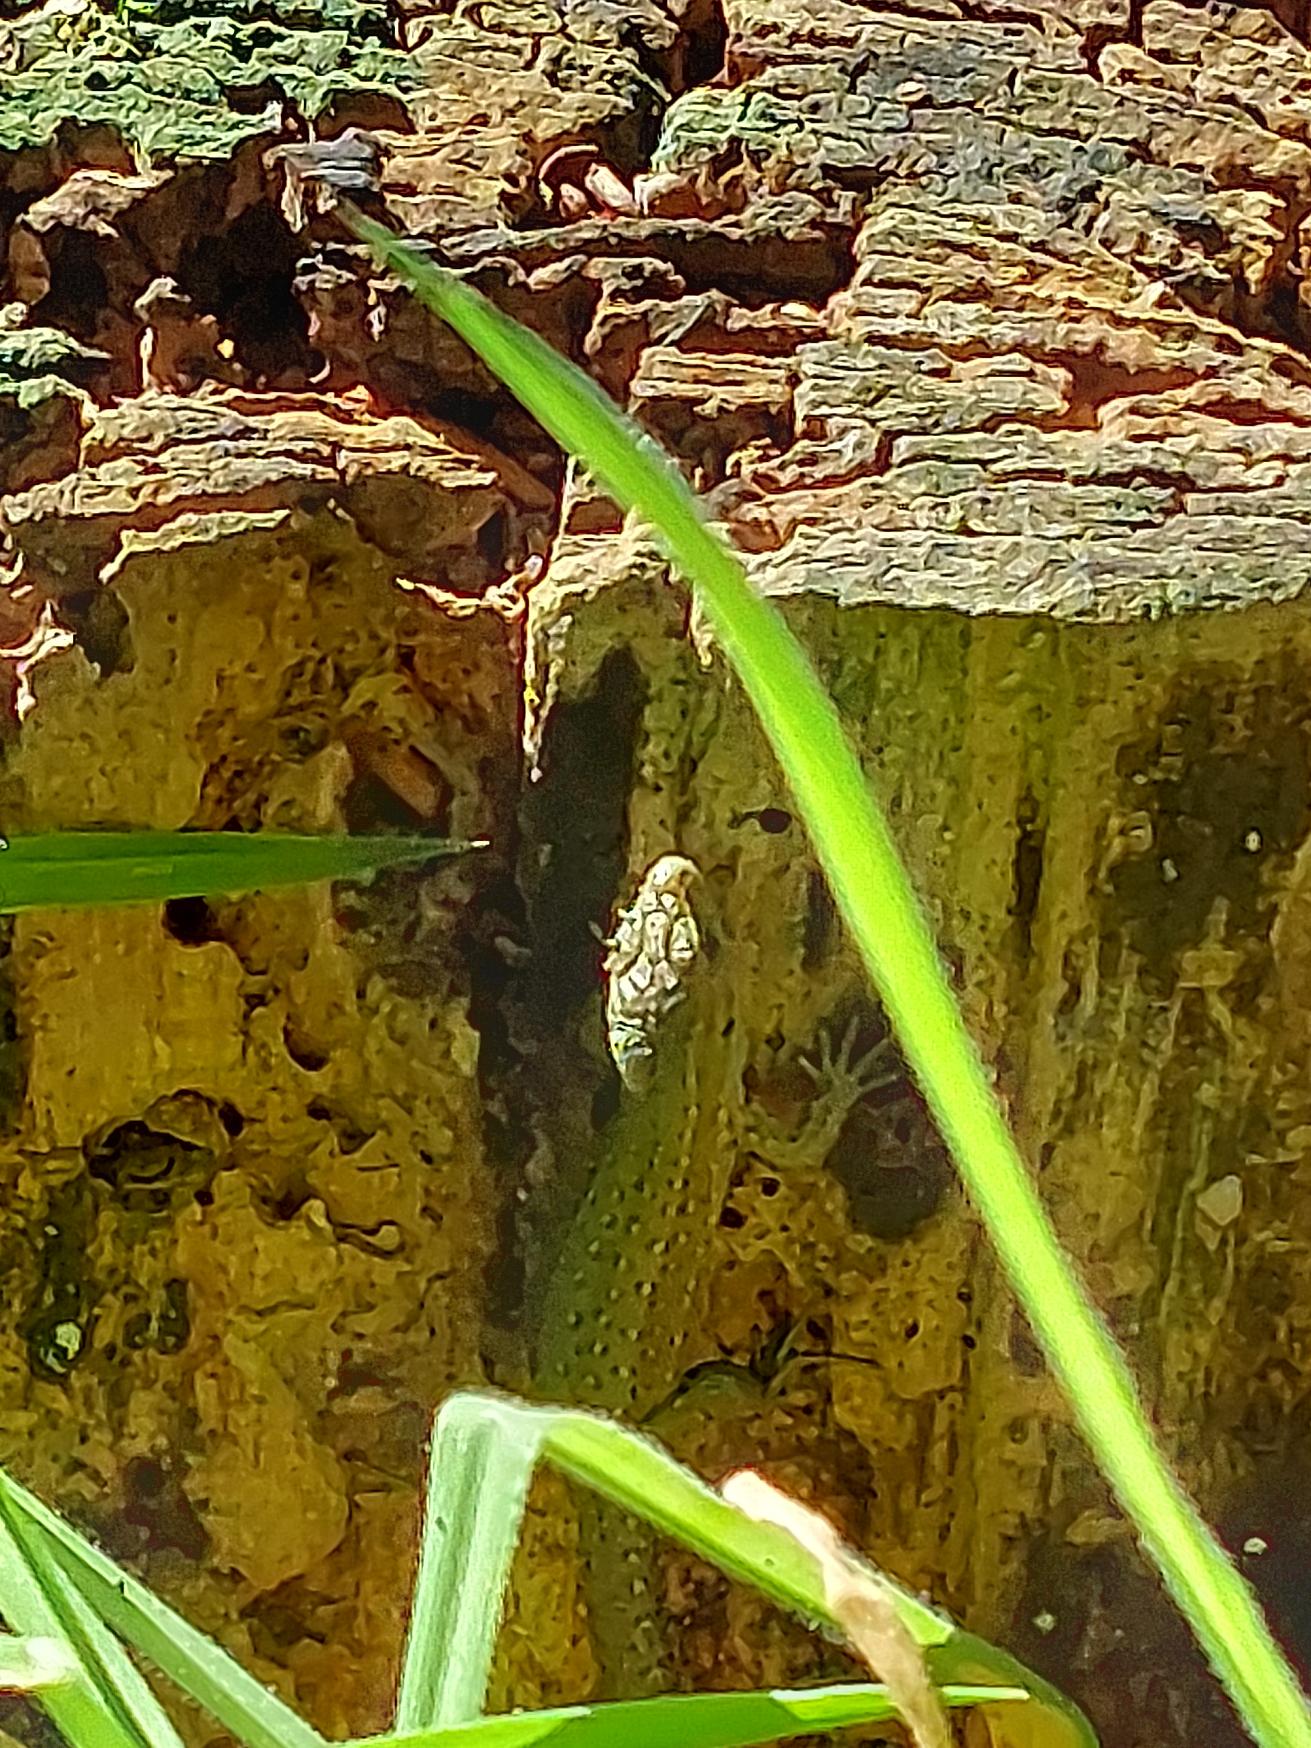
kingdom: Animalia
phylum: Chordata
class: Squamata
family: Lacertidae
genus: Zootoca
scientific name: Zootoca vivipara
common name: Skovfirben
